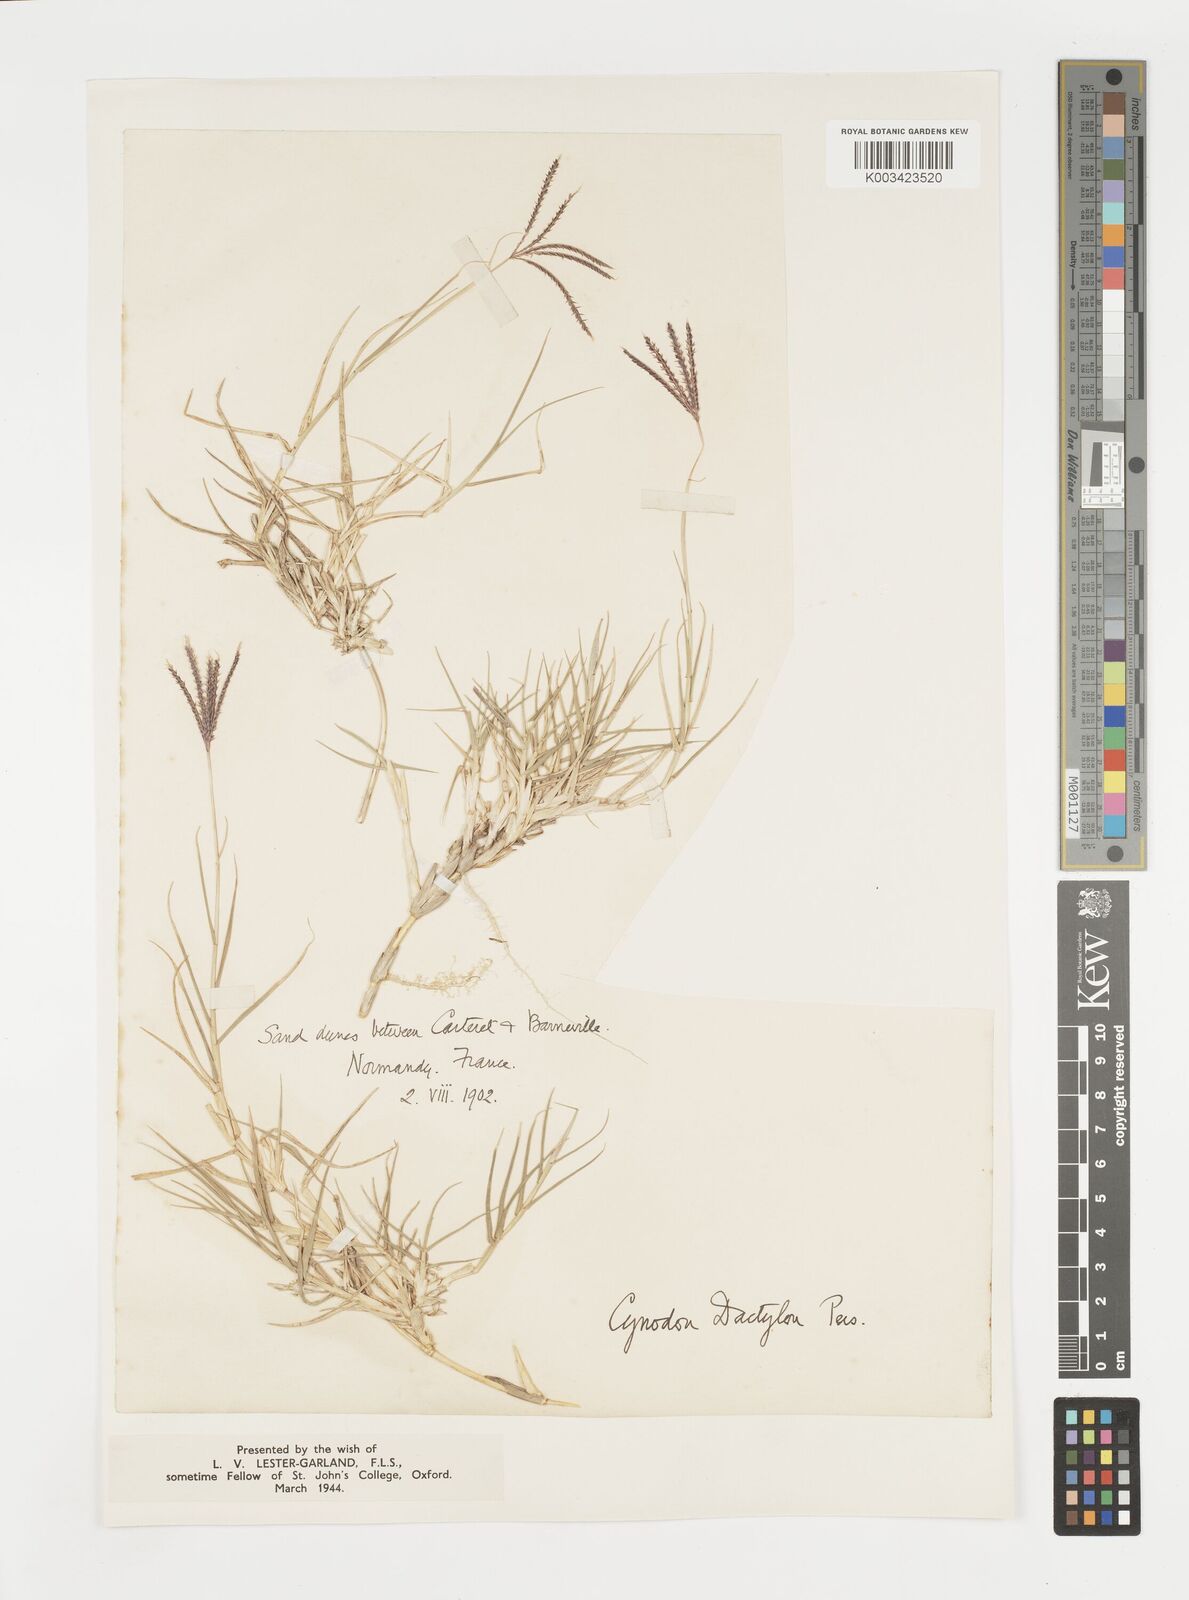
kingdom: Plantae
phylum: Tracheophyta
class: Liliopsida
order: Poales
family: Poaceae
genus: Cynodon
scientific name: Cynodon dactylon
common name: Bermuda grass
